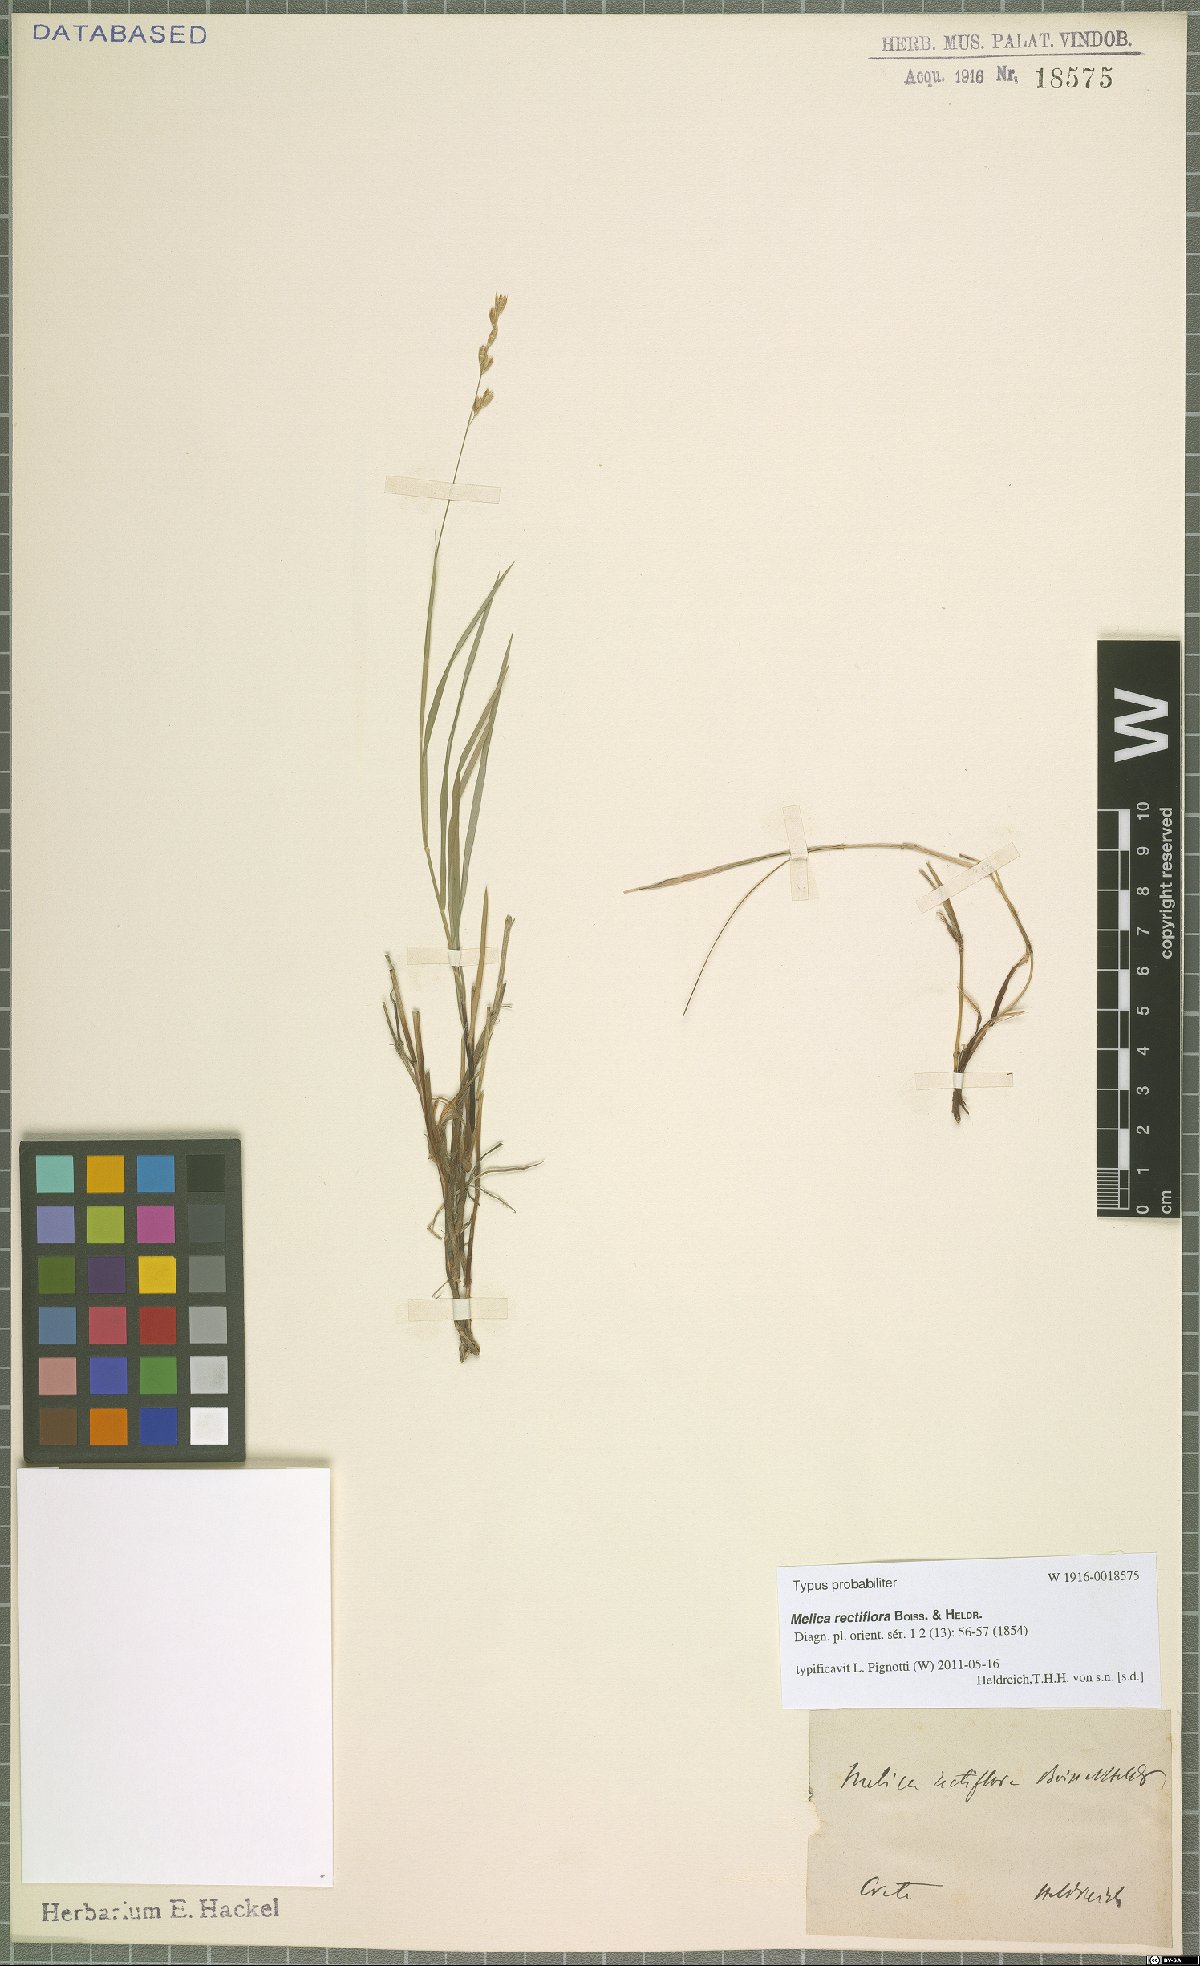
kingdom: Plantae
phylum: Tracheophyta
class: Liliopsida
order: Poales
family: Poaceae
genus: Melica
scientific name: Melica rectiflora
